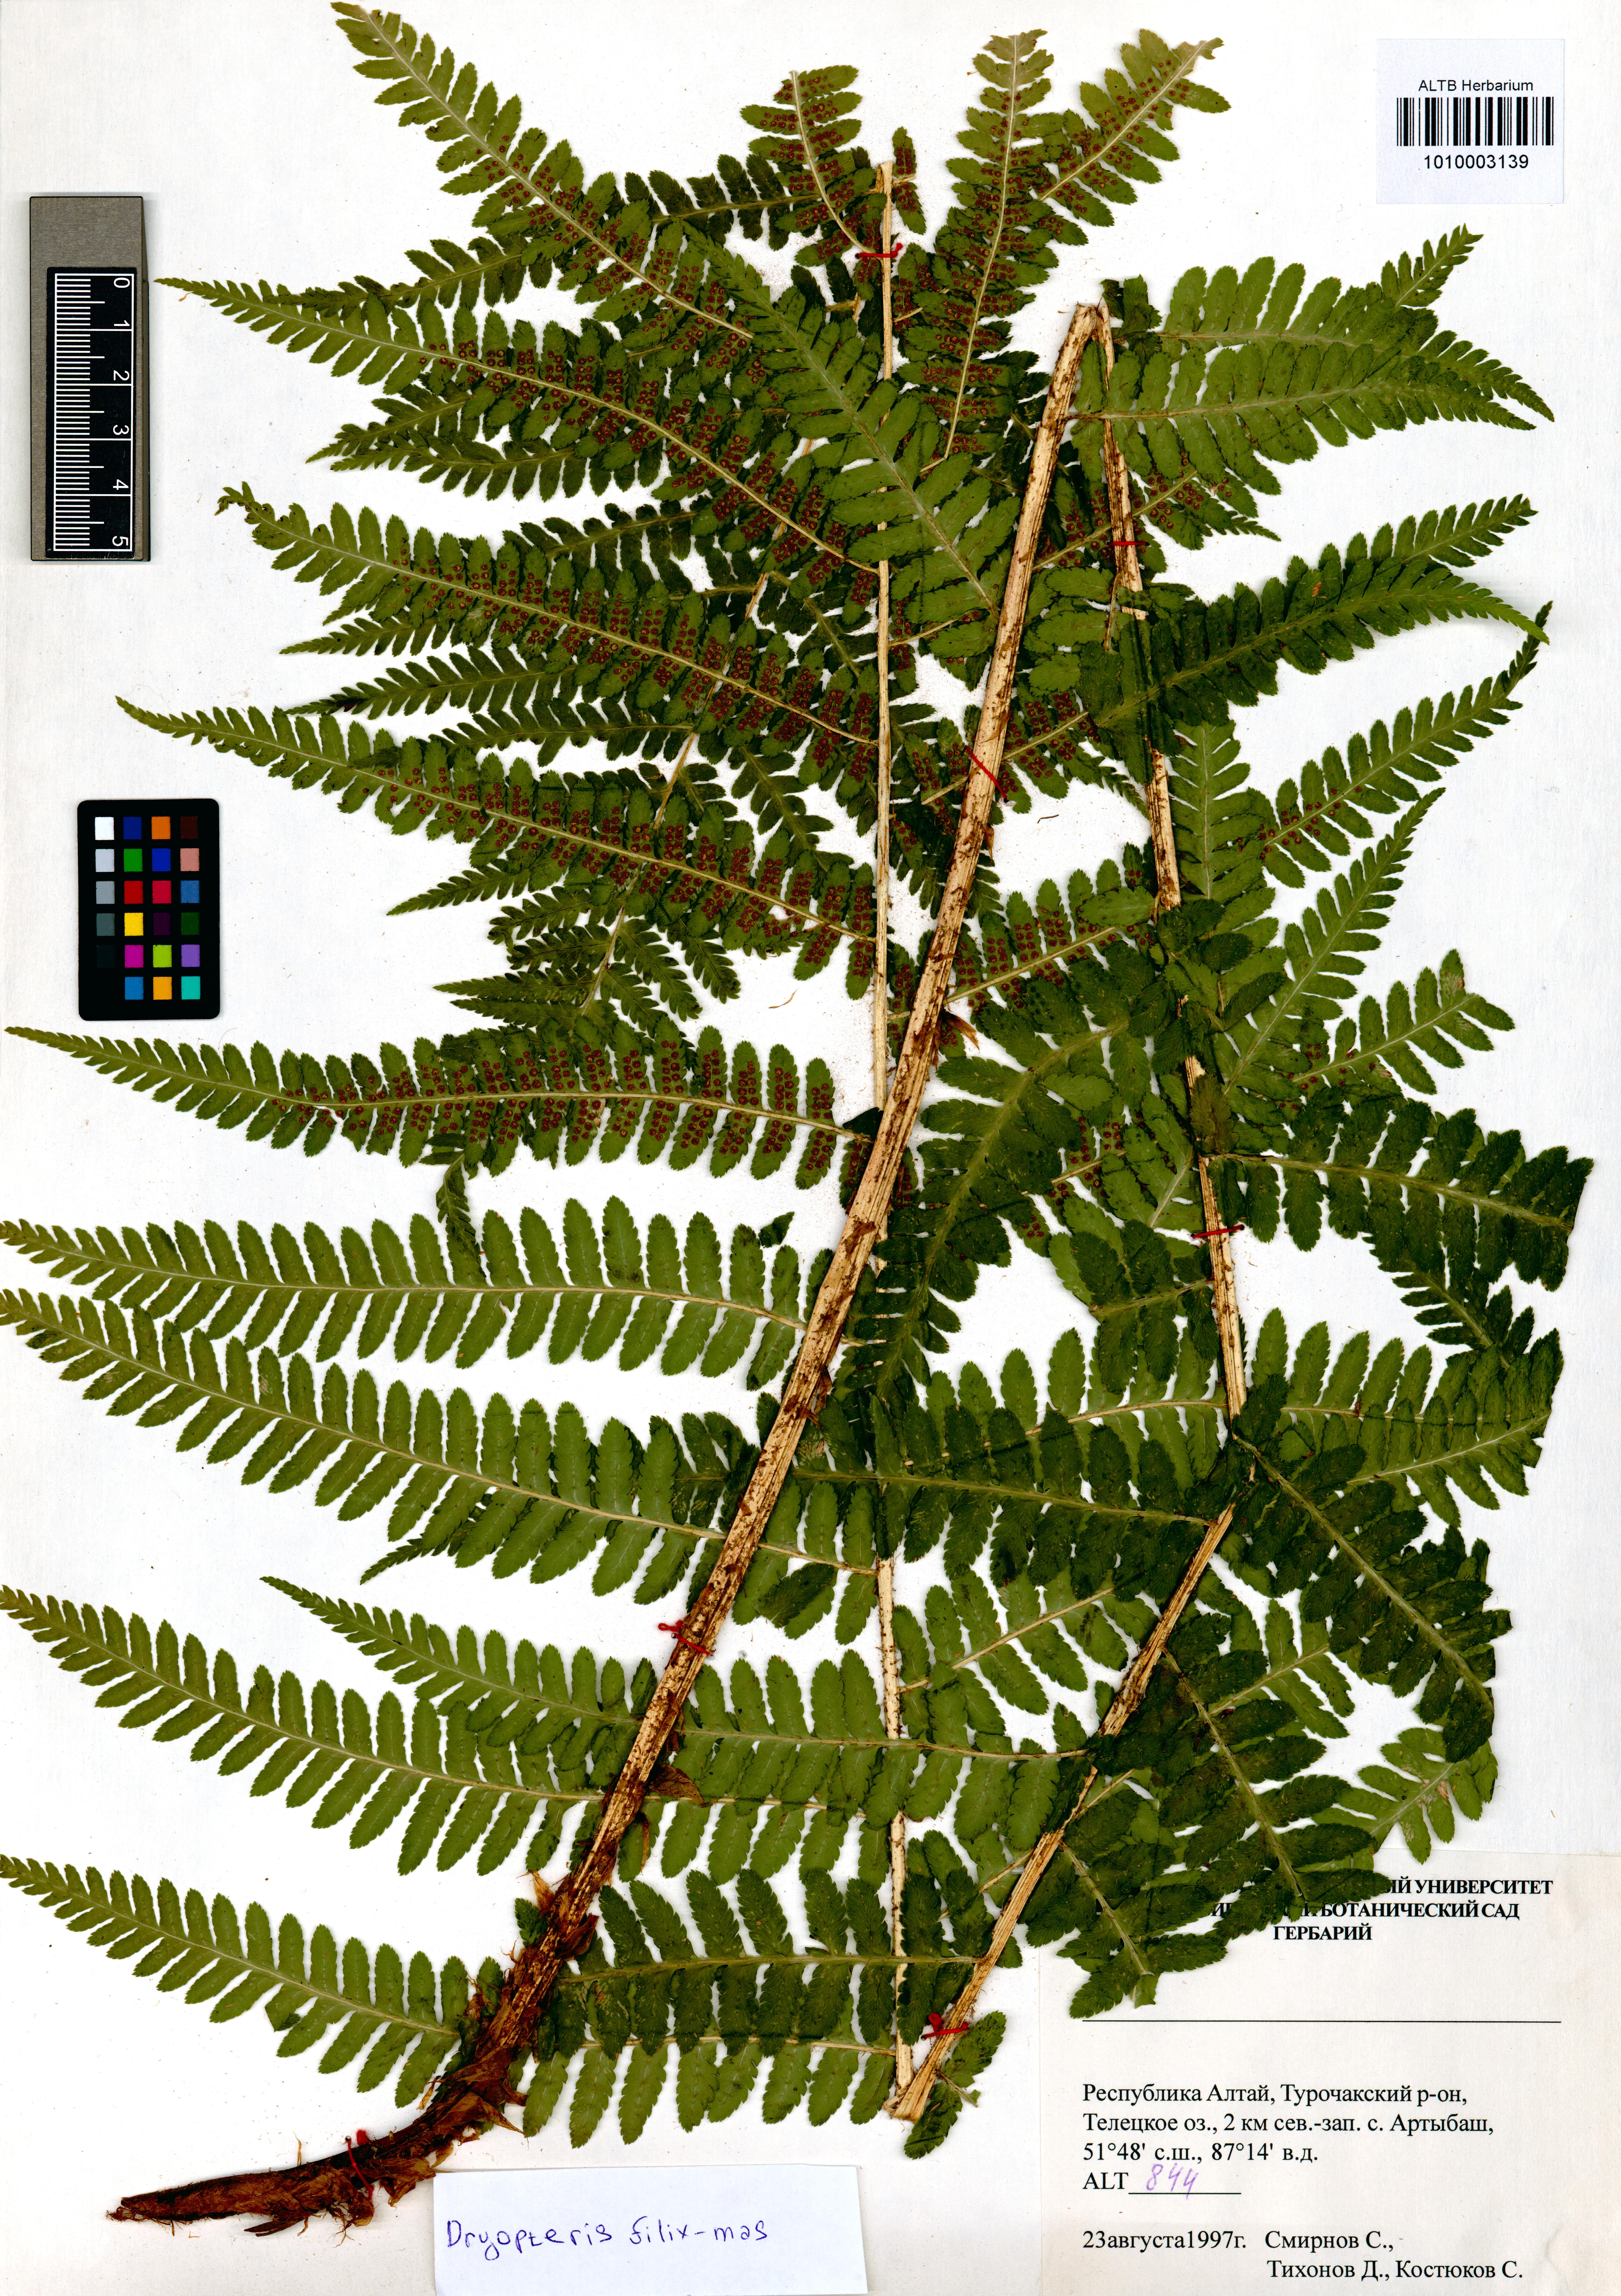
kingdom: Plantae
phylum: Tracheophyta
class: Polypodiopsida
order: Polypodiales
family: Dryopteridaceae
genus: Dryopteris
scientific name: Dryopteris filix-mas
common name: Male fern
